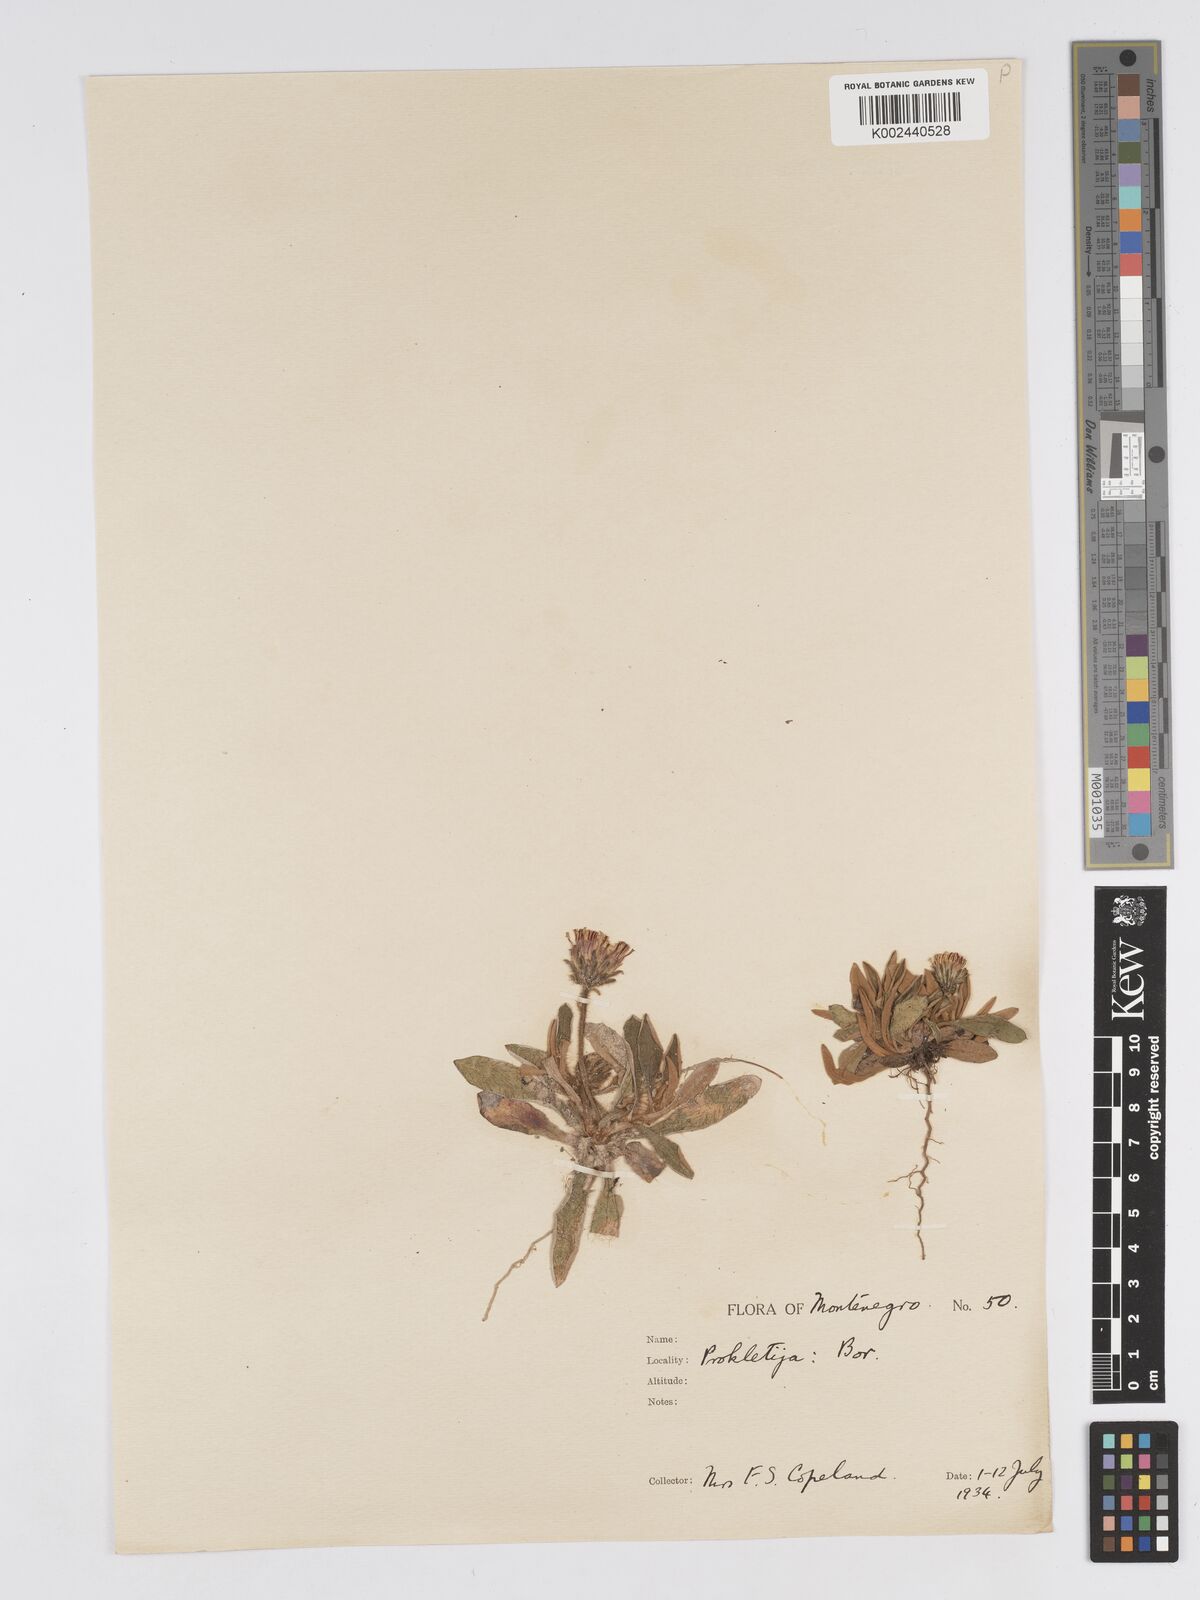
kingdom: Plantae
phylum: Tracheophyta
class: Magnoliopsida
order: Asterales
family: Asteraceae
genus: Pilosella
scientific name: Pilosella velutina
